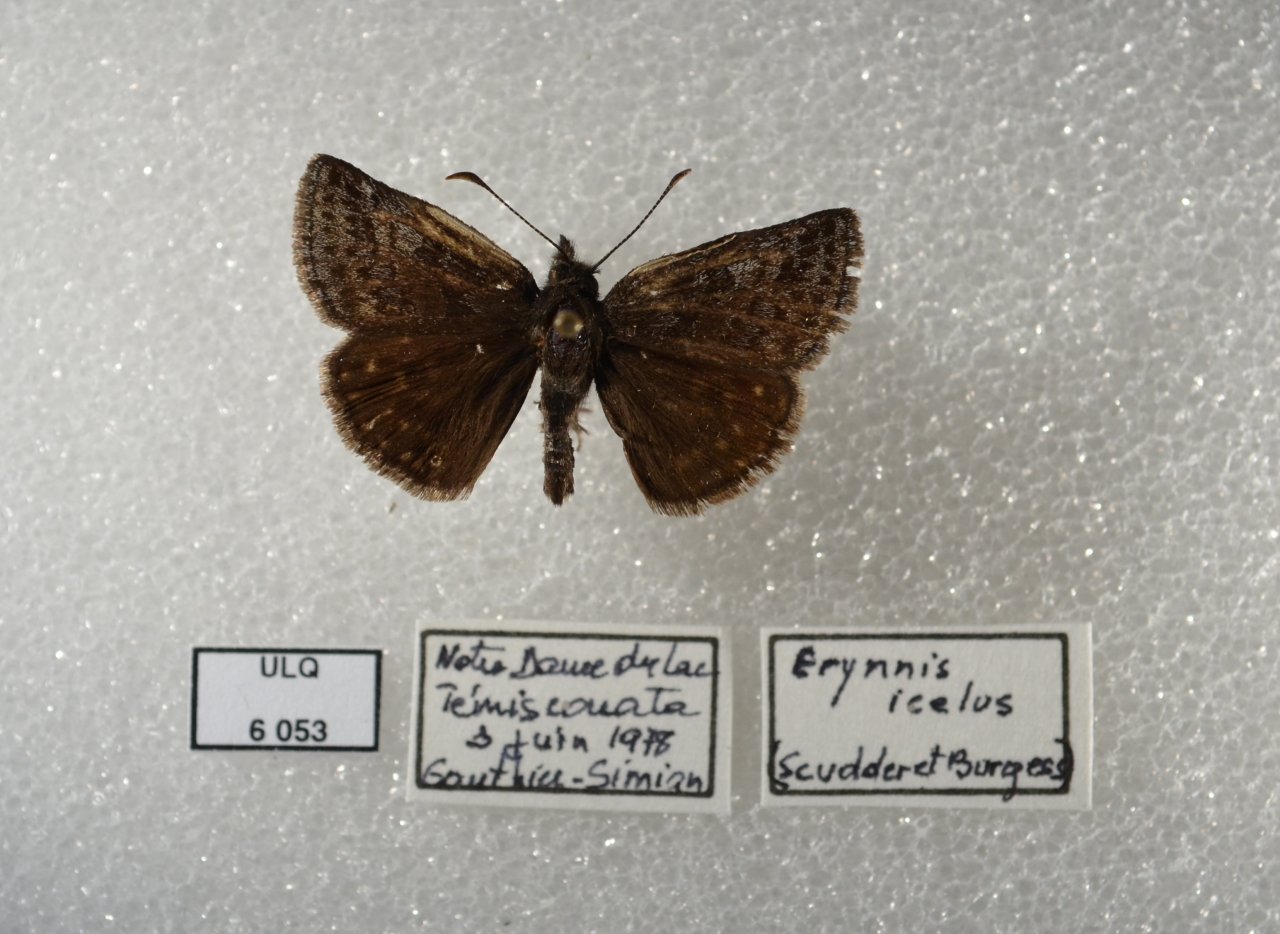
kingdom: Animalia
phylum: Arthropoda
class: Insecta
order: Lepidoptera
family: Hesperiidae
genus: Erynnis
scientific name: Erynnis icelus
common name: Dreamy Duskywing
